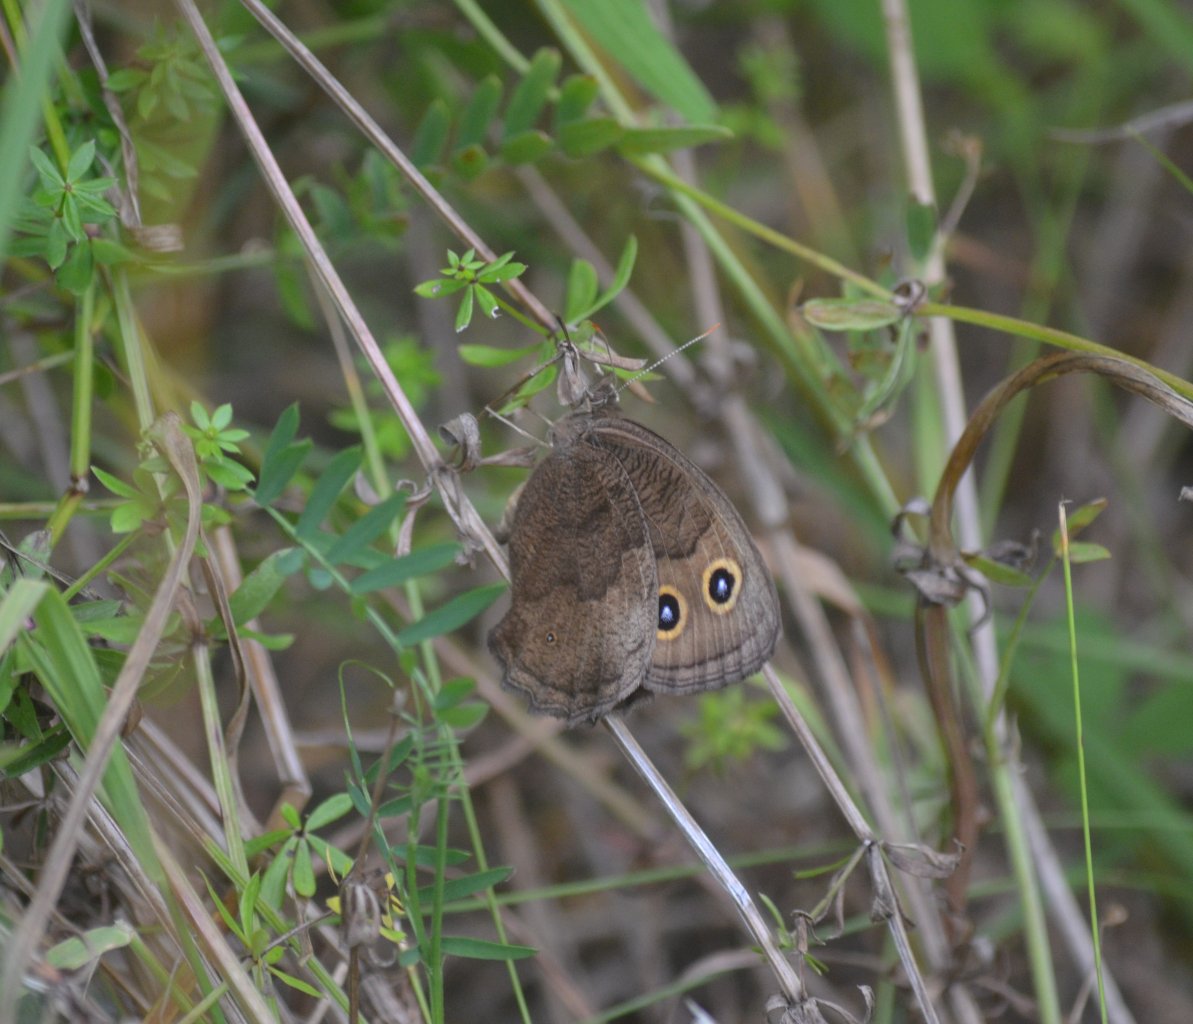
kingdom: Animalia
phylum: Arthropoda
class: Insecta
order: Lepidoptera
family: Nymphalidae
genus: Cercyonis
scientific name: Cercyonis pegala
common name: Common Wood-Nymph
